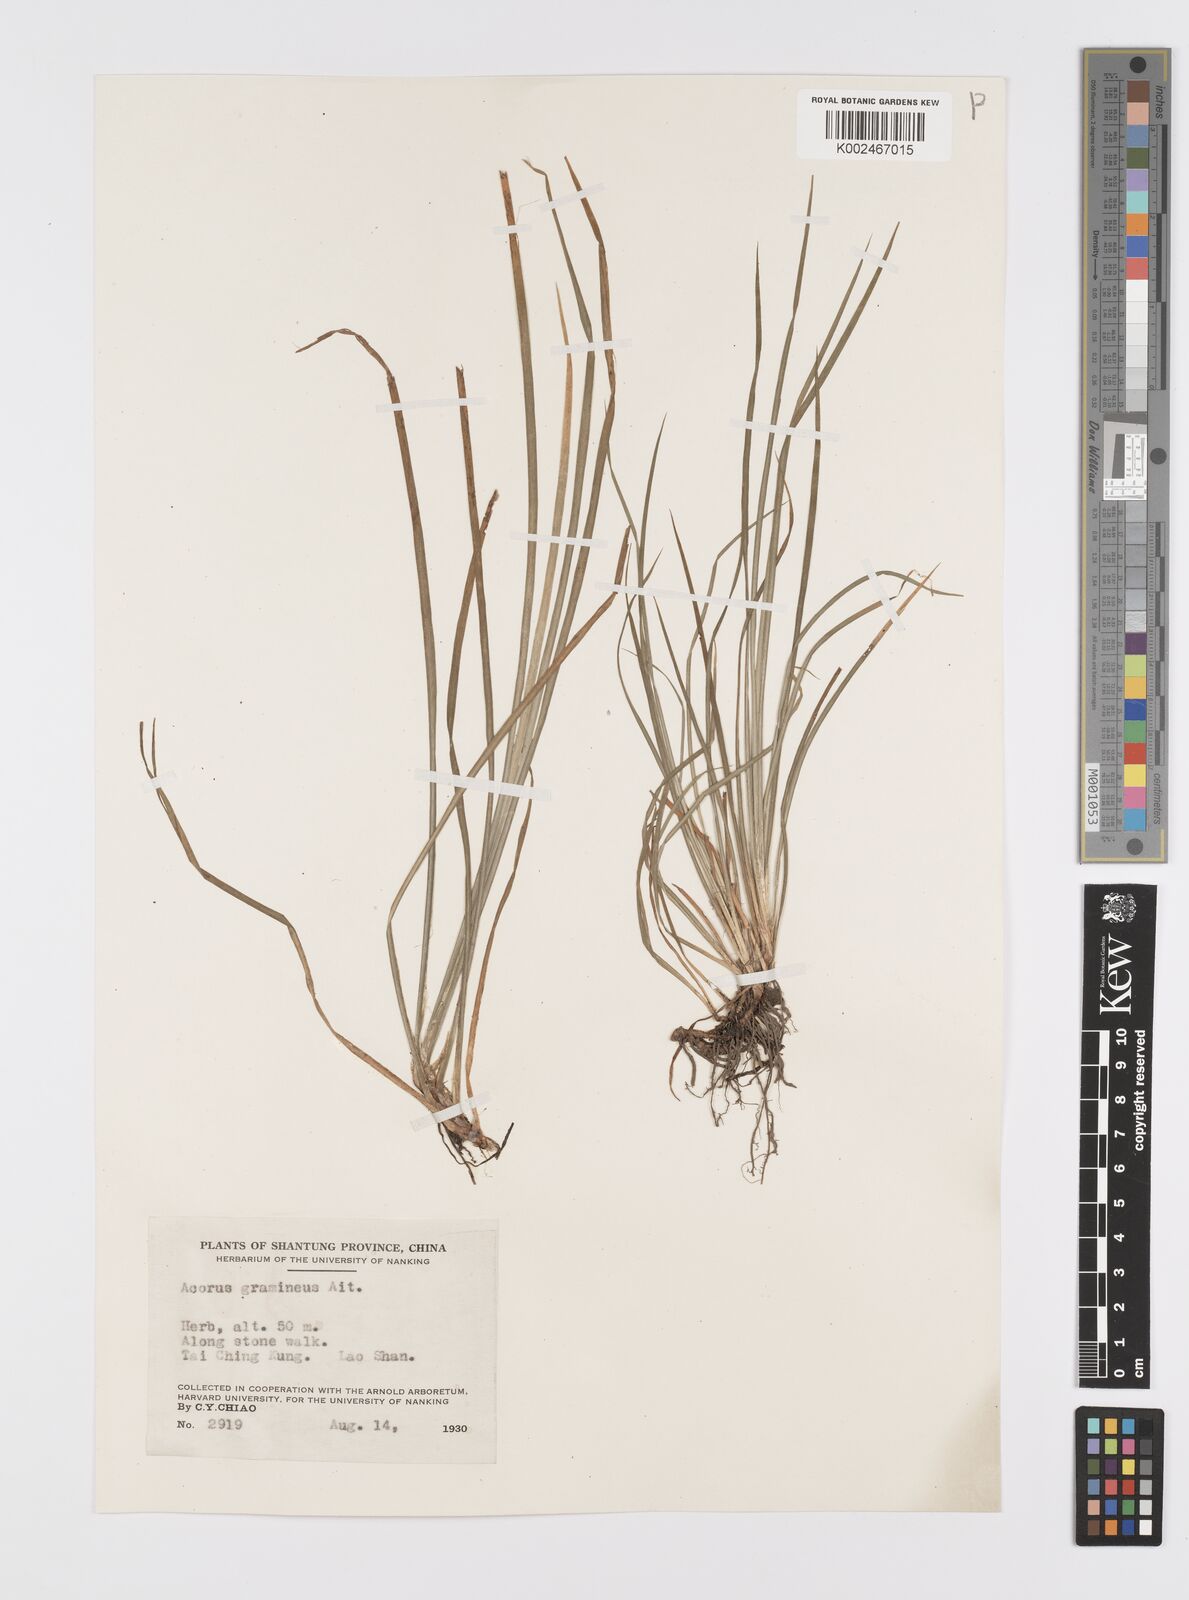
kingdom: Plantae
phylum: Tracheophyta
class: Liliopsida
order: Acorales
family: Acoraceae
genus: Acorus
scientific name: Acorus gramineus
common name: Slender sweet-flag
